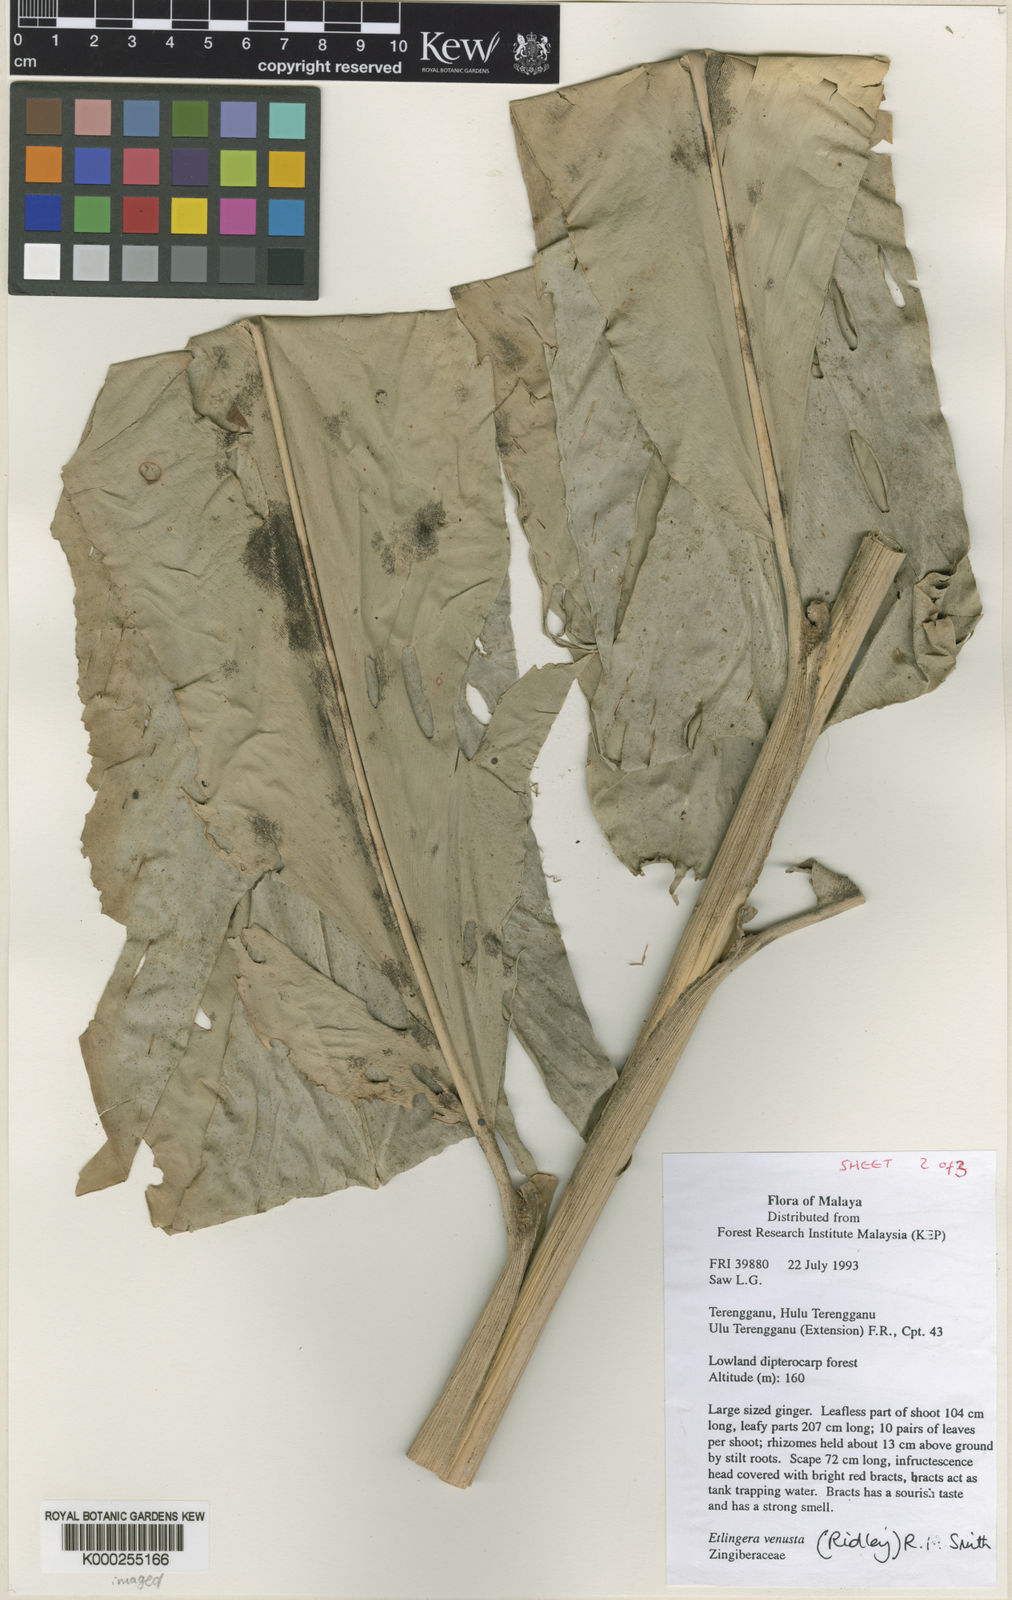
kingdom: Plantae
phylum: Tracheophyta
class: Liliopsida
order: Zingiberales
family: Zingiberaceae
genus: Etlingera
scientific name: Etlingera corneri
